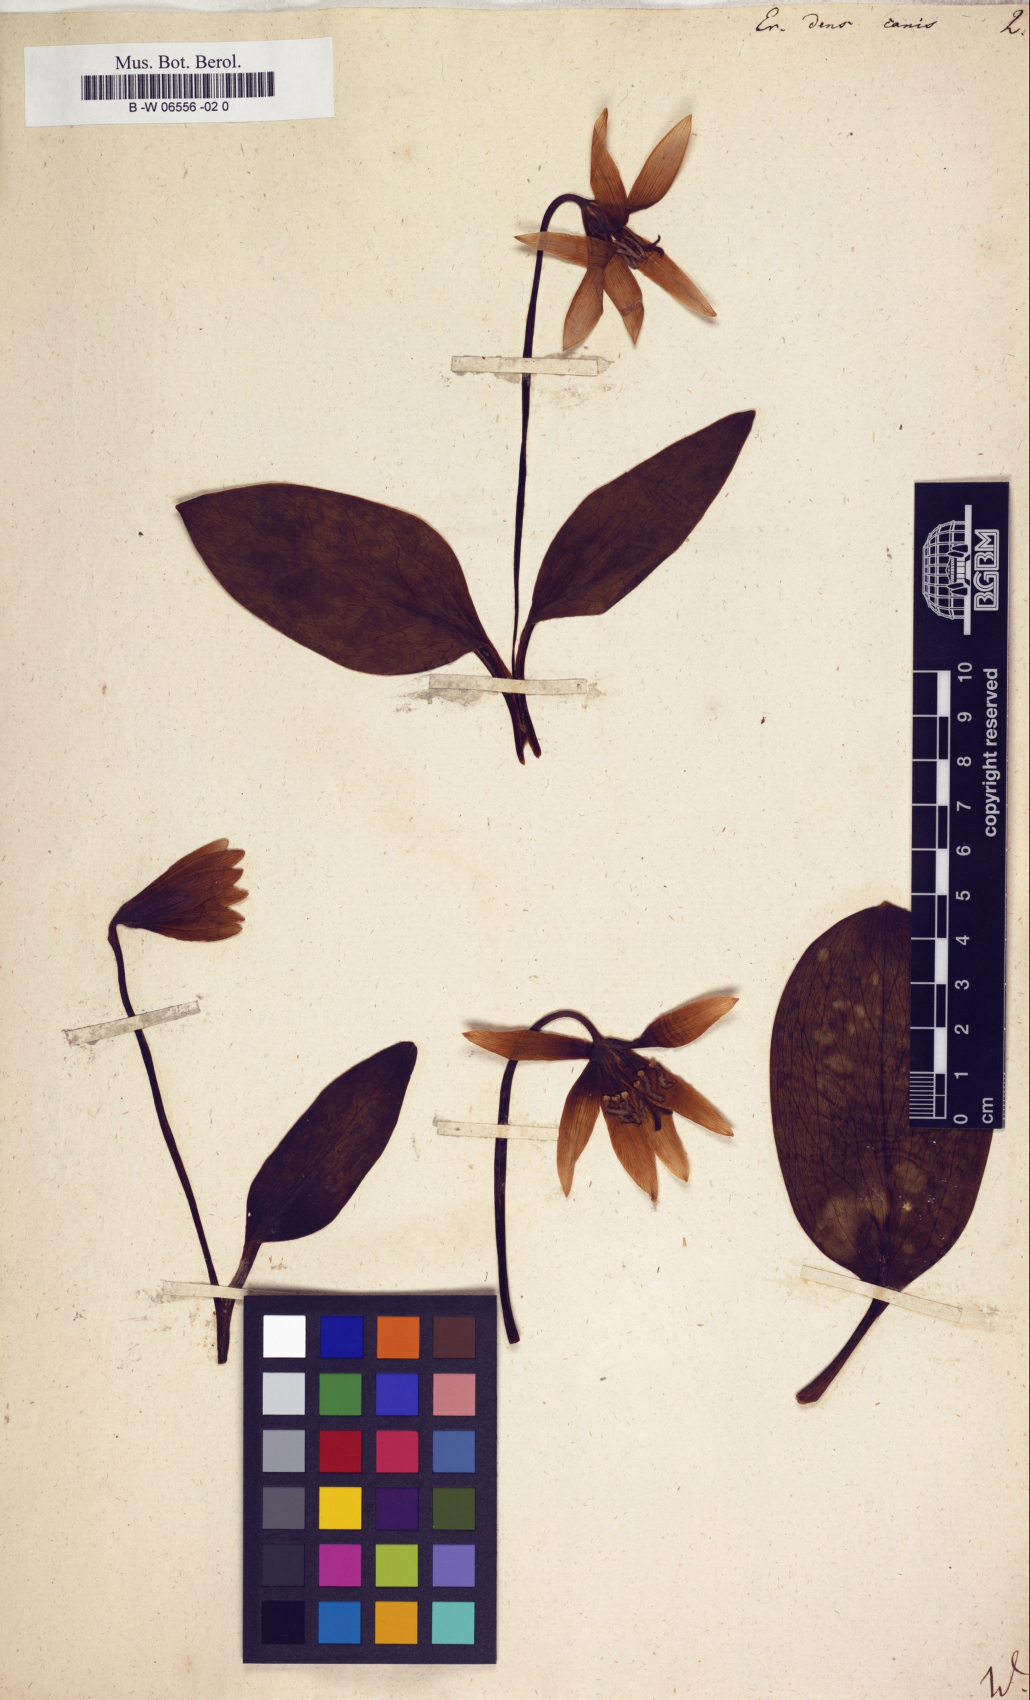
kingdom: Plantae
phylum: Tracheophyta
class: Liliopsida
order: Liliales
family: Liliaceae
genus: Erythronium
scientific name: Erythronium dens-canis
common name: Dog's-tooth-violet
